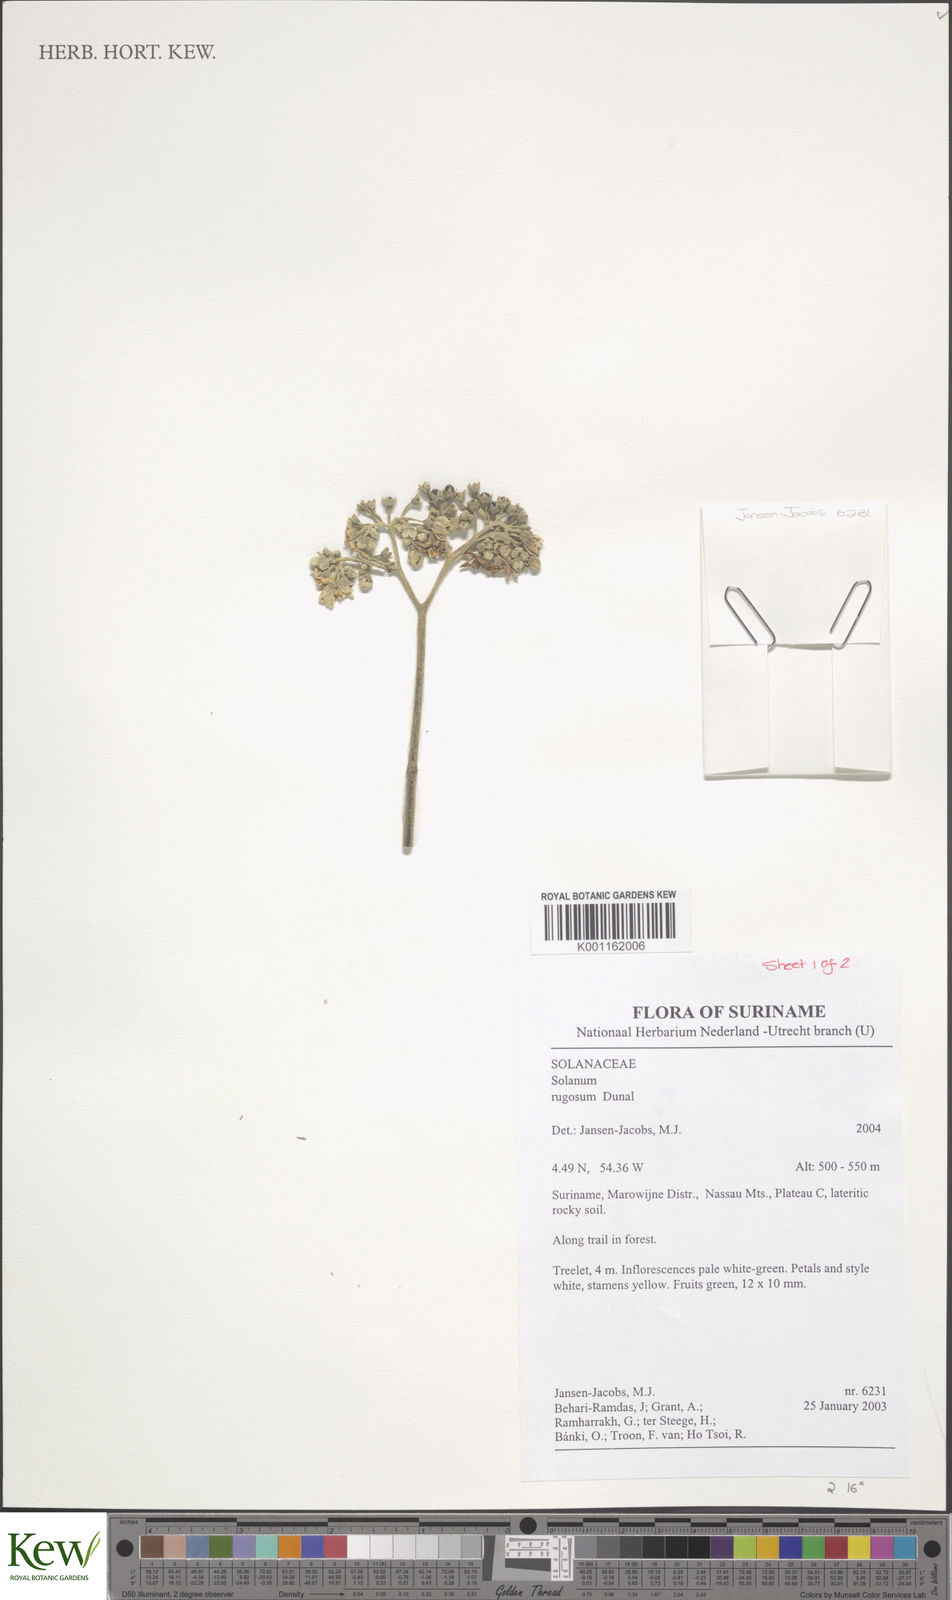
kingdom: Plantae
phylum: Tracheophyta
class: Magnoliopsida
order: Solanales
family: Solanaceae
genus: Solanum
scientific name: Solanum rugosum
